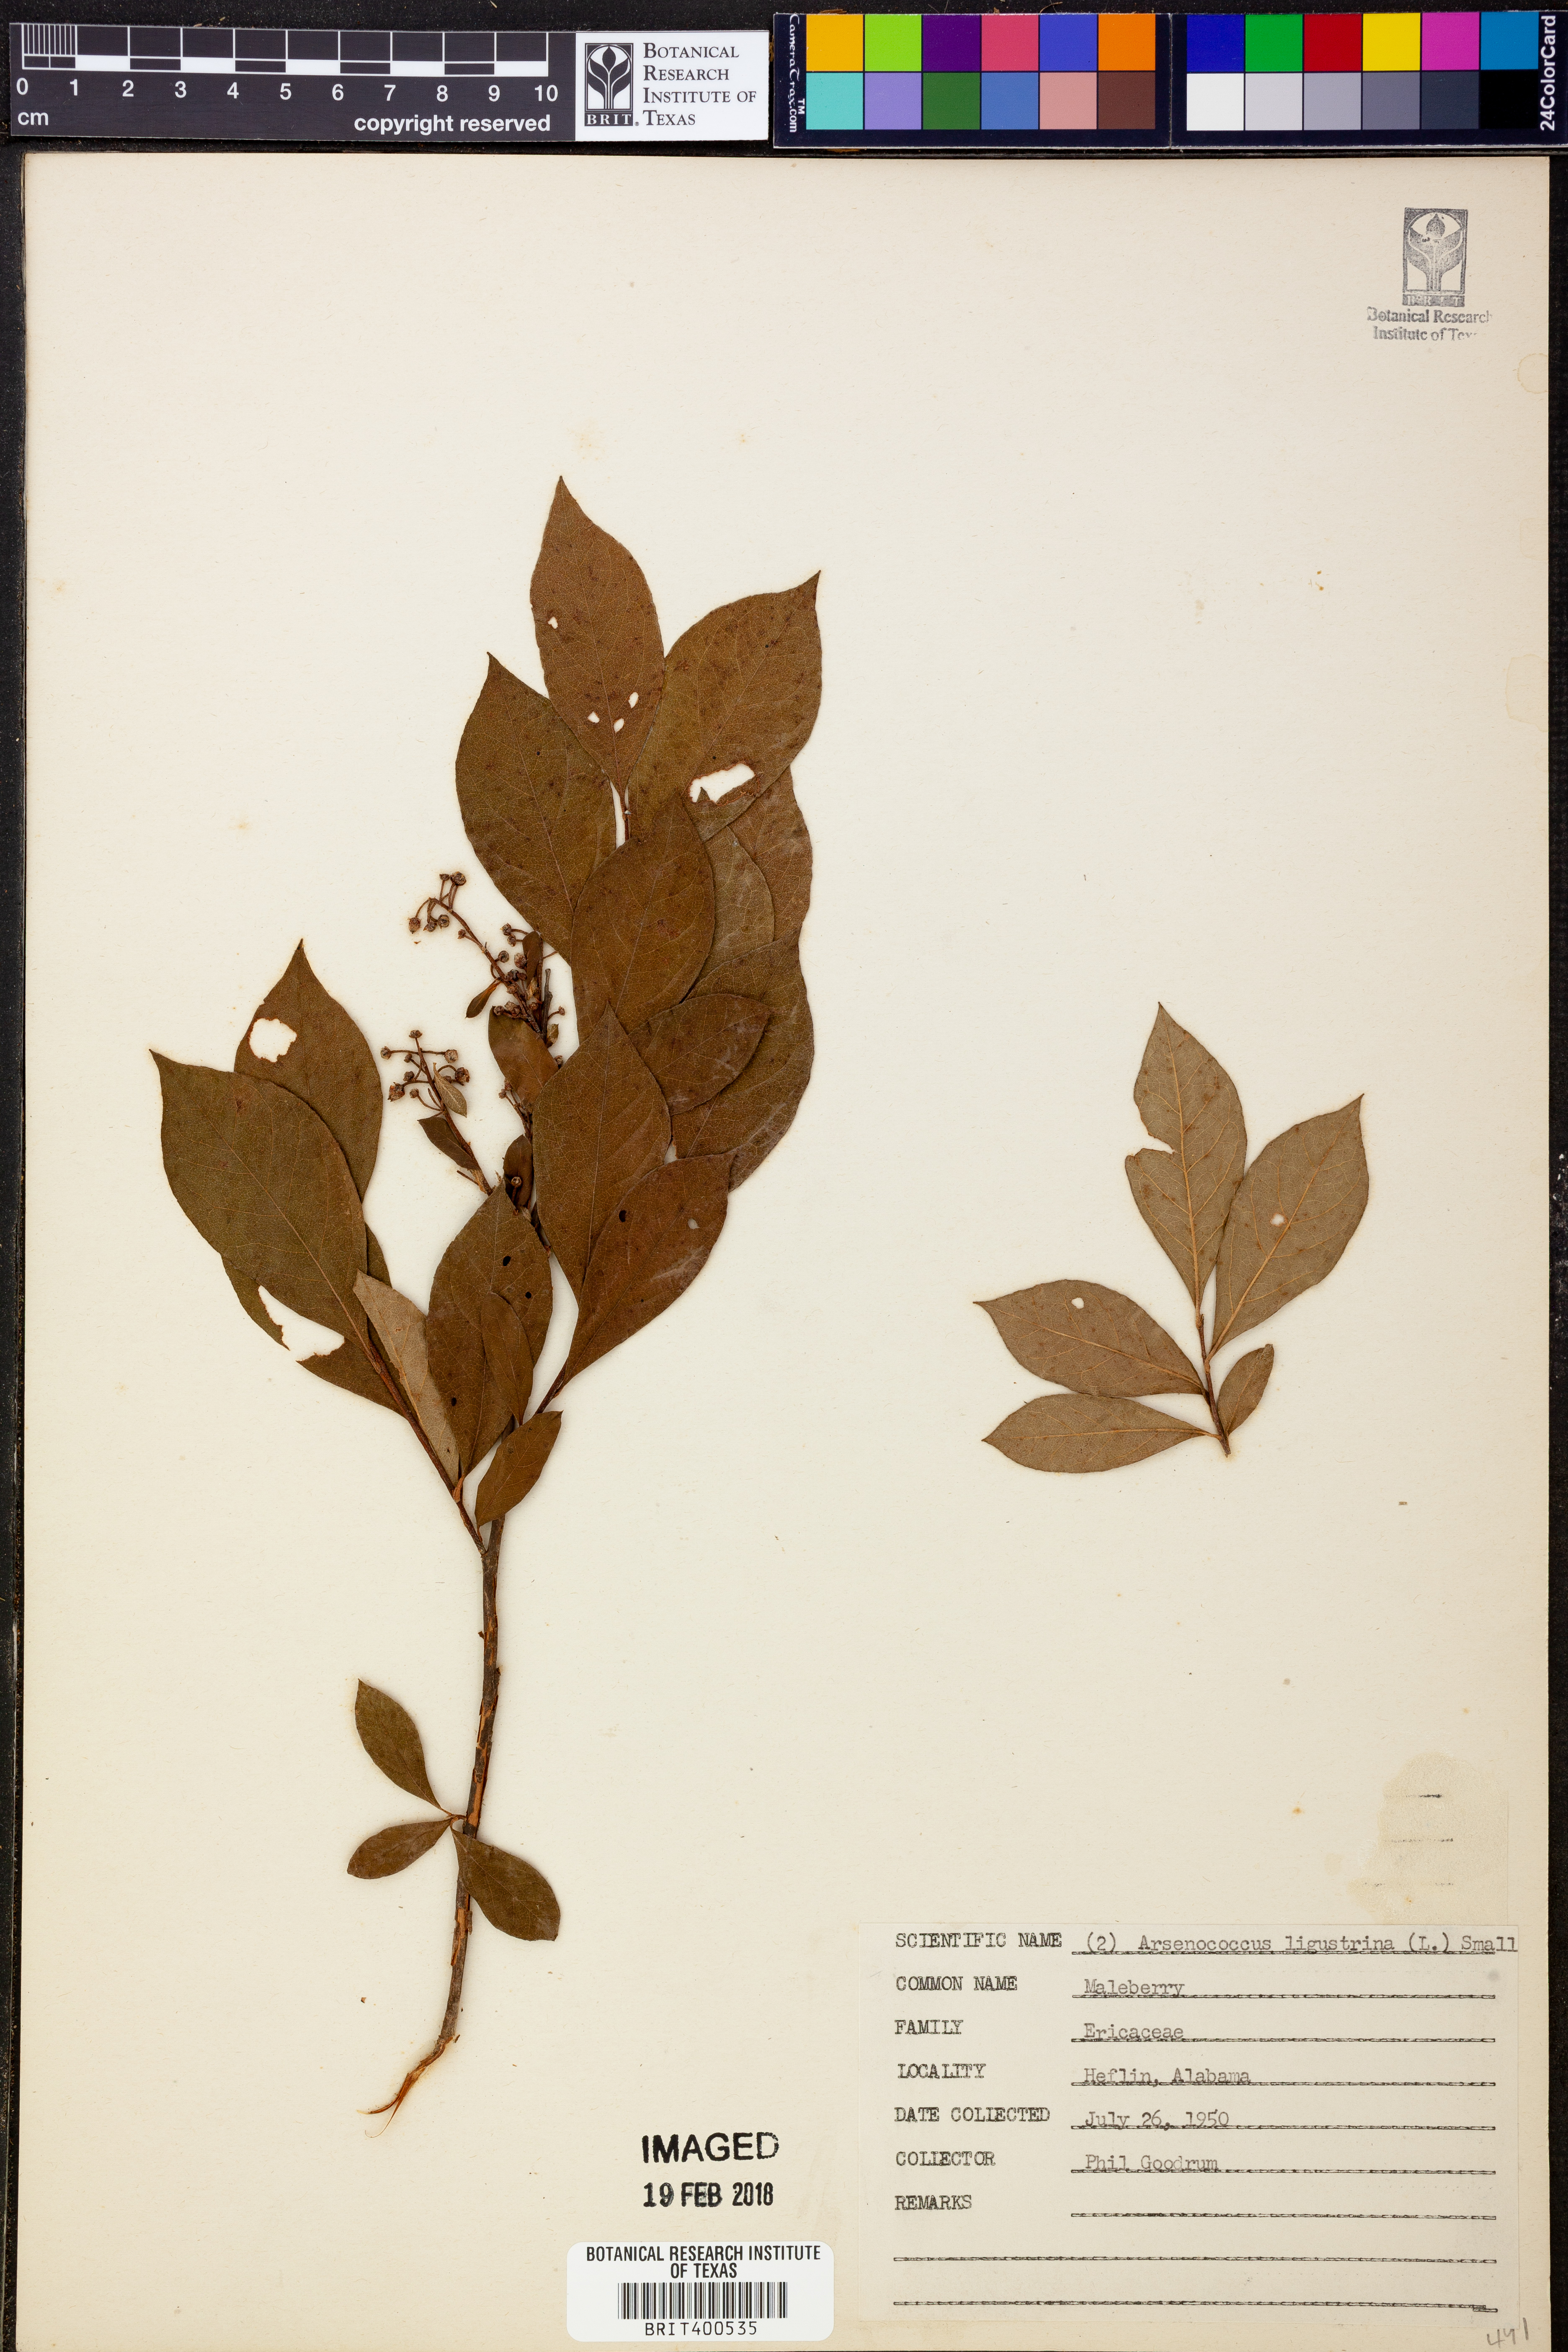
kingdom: Plantae
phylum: Tracheophyta
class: Magnoliopsida
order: Ericales
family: Ericaceae
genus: Lyonia
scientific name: Lyonia
